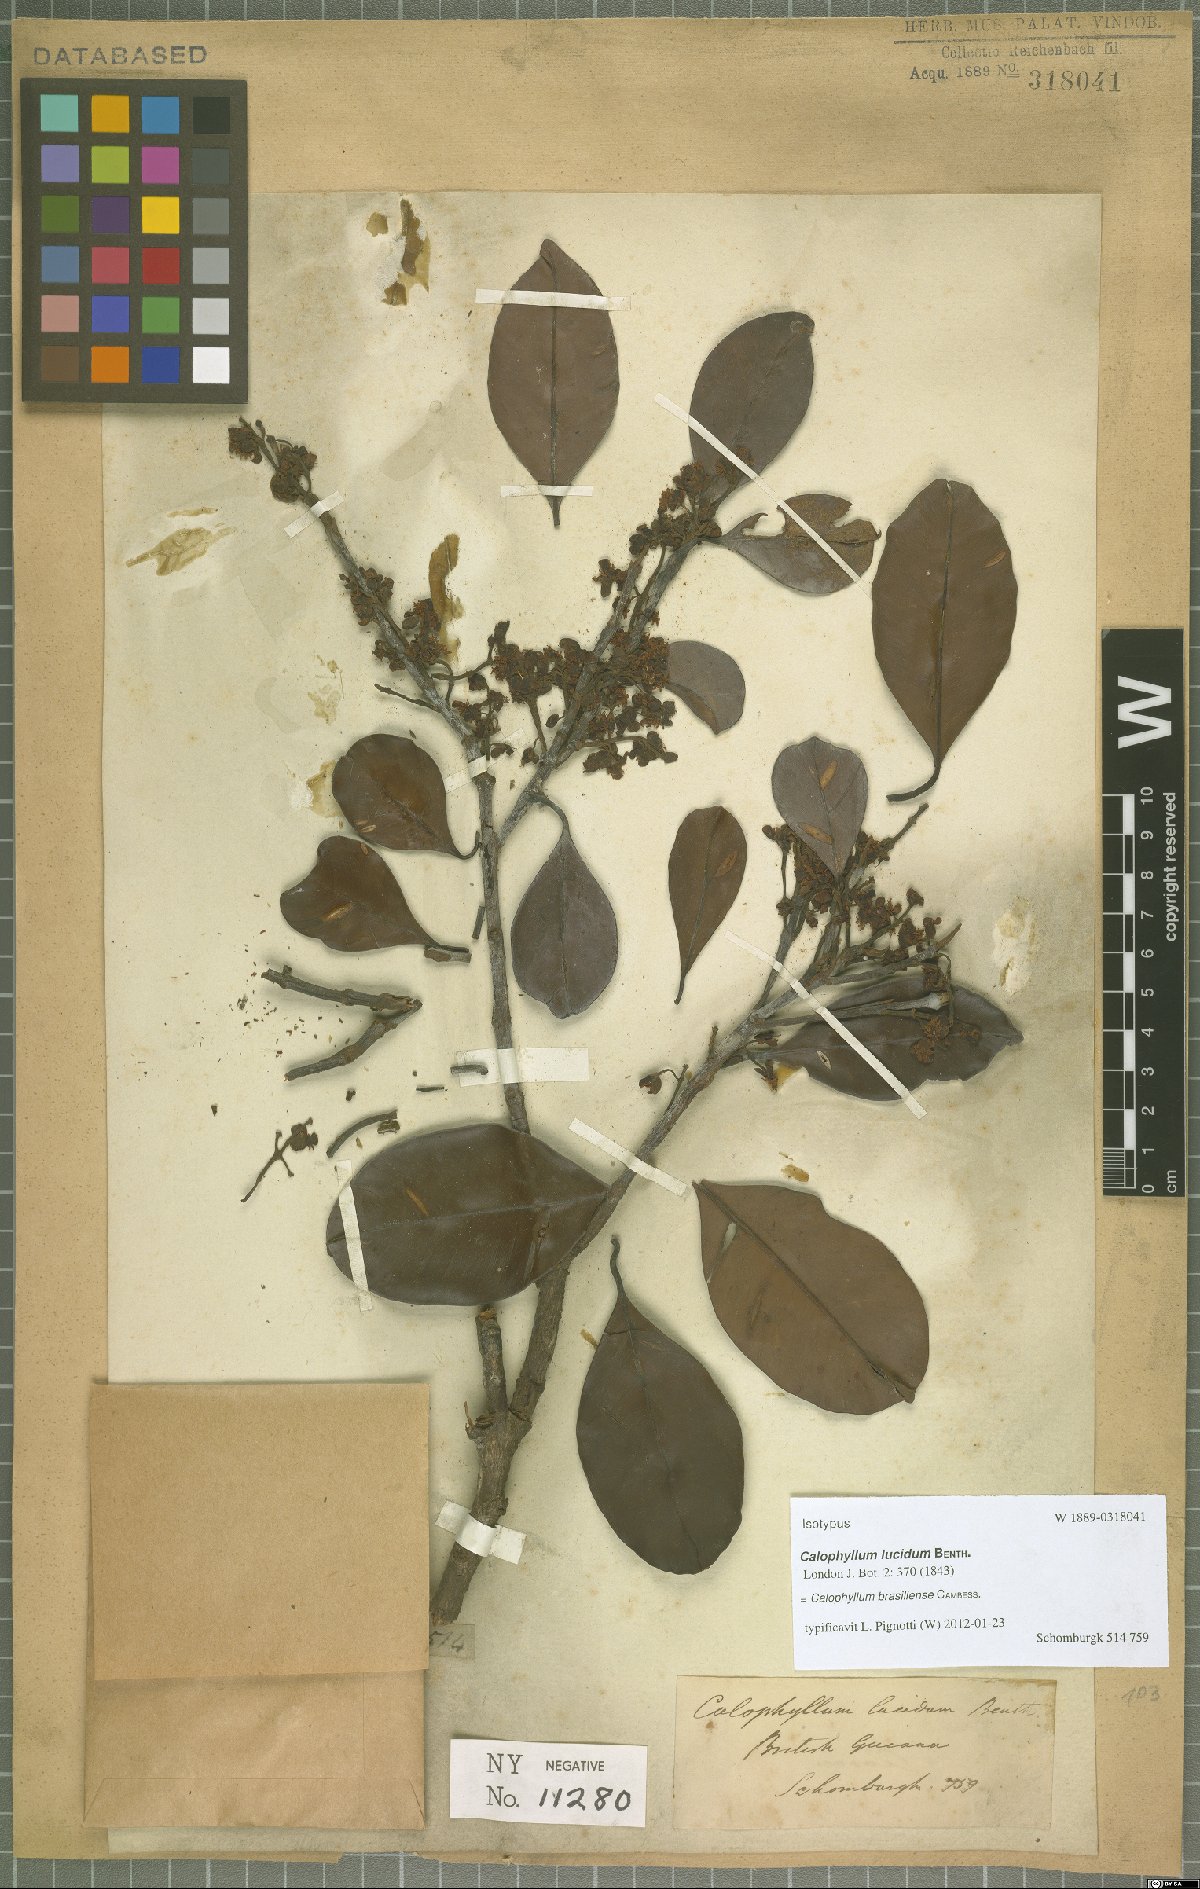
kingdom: Plantae
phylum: Tracheophyta
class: Magnoliopsida
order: Malpighiales
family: Calophyllaceae
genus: Calophyllum
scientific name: Calophyllum brasiliense
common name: Santa maria
